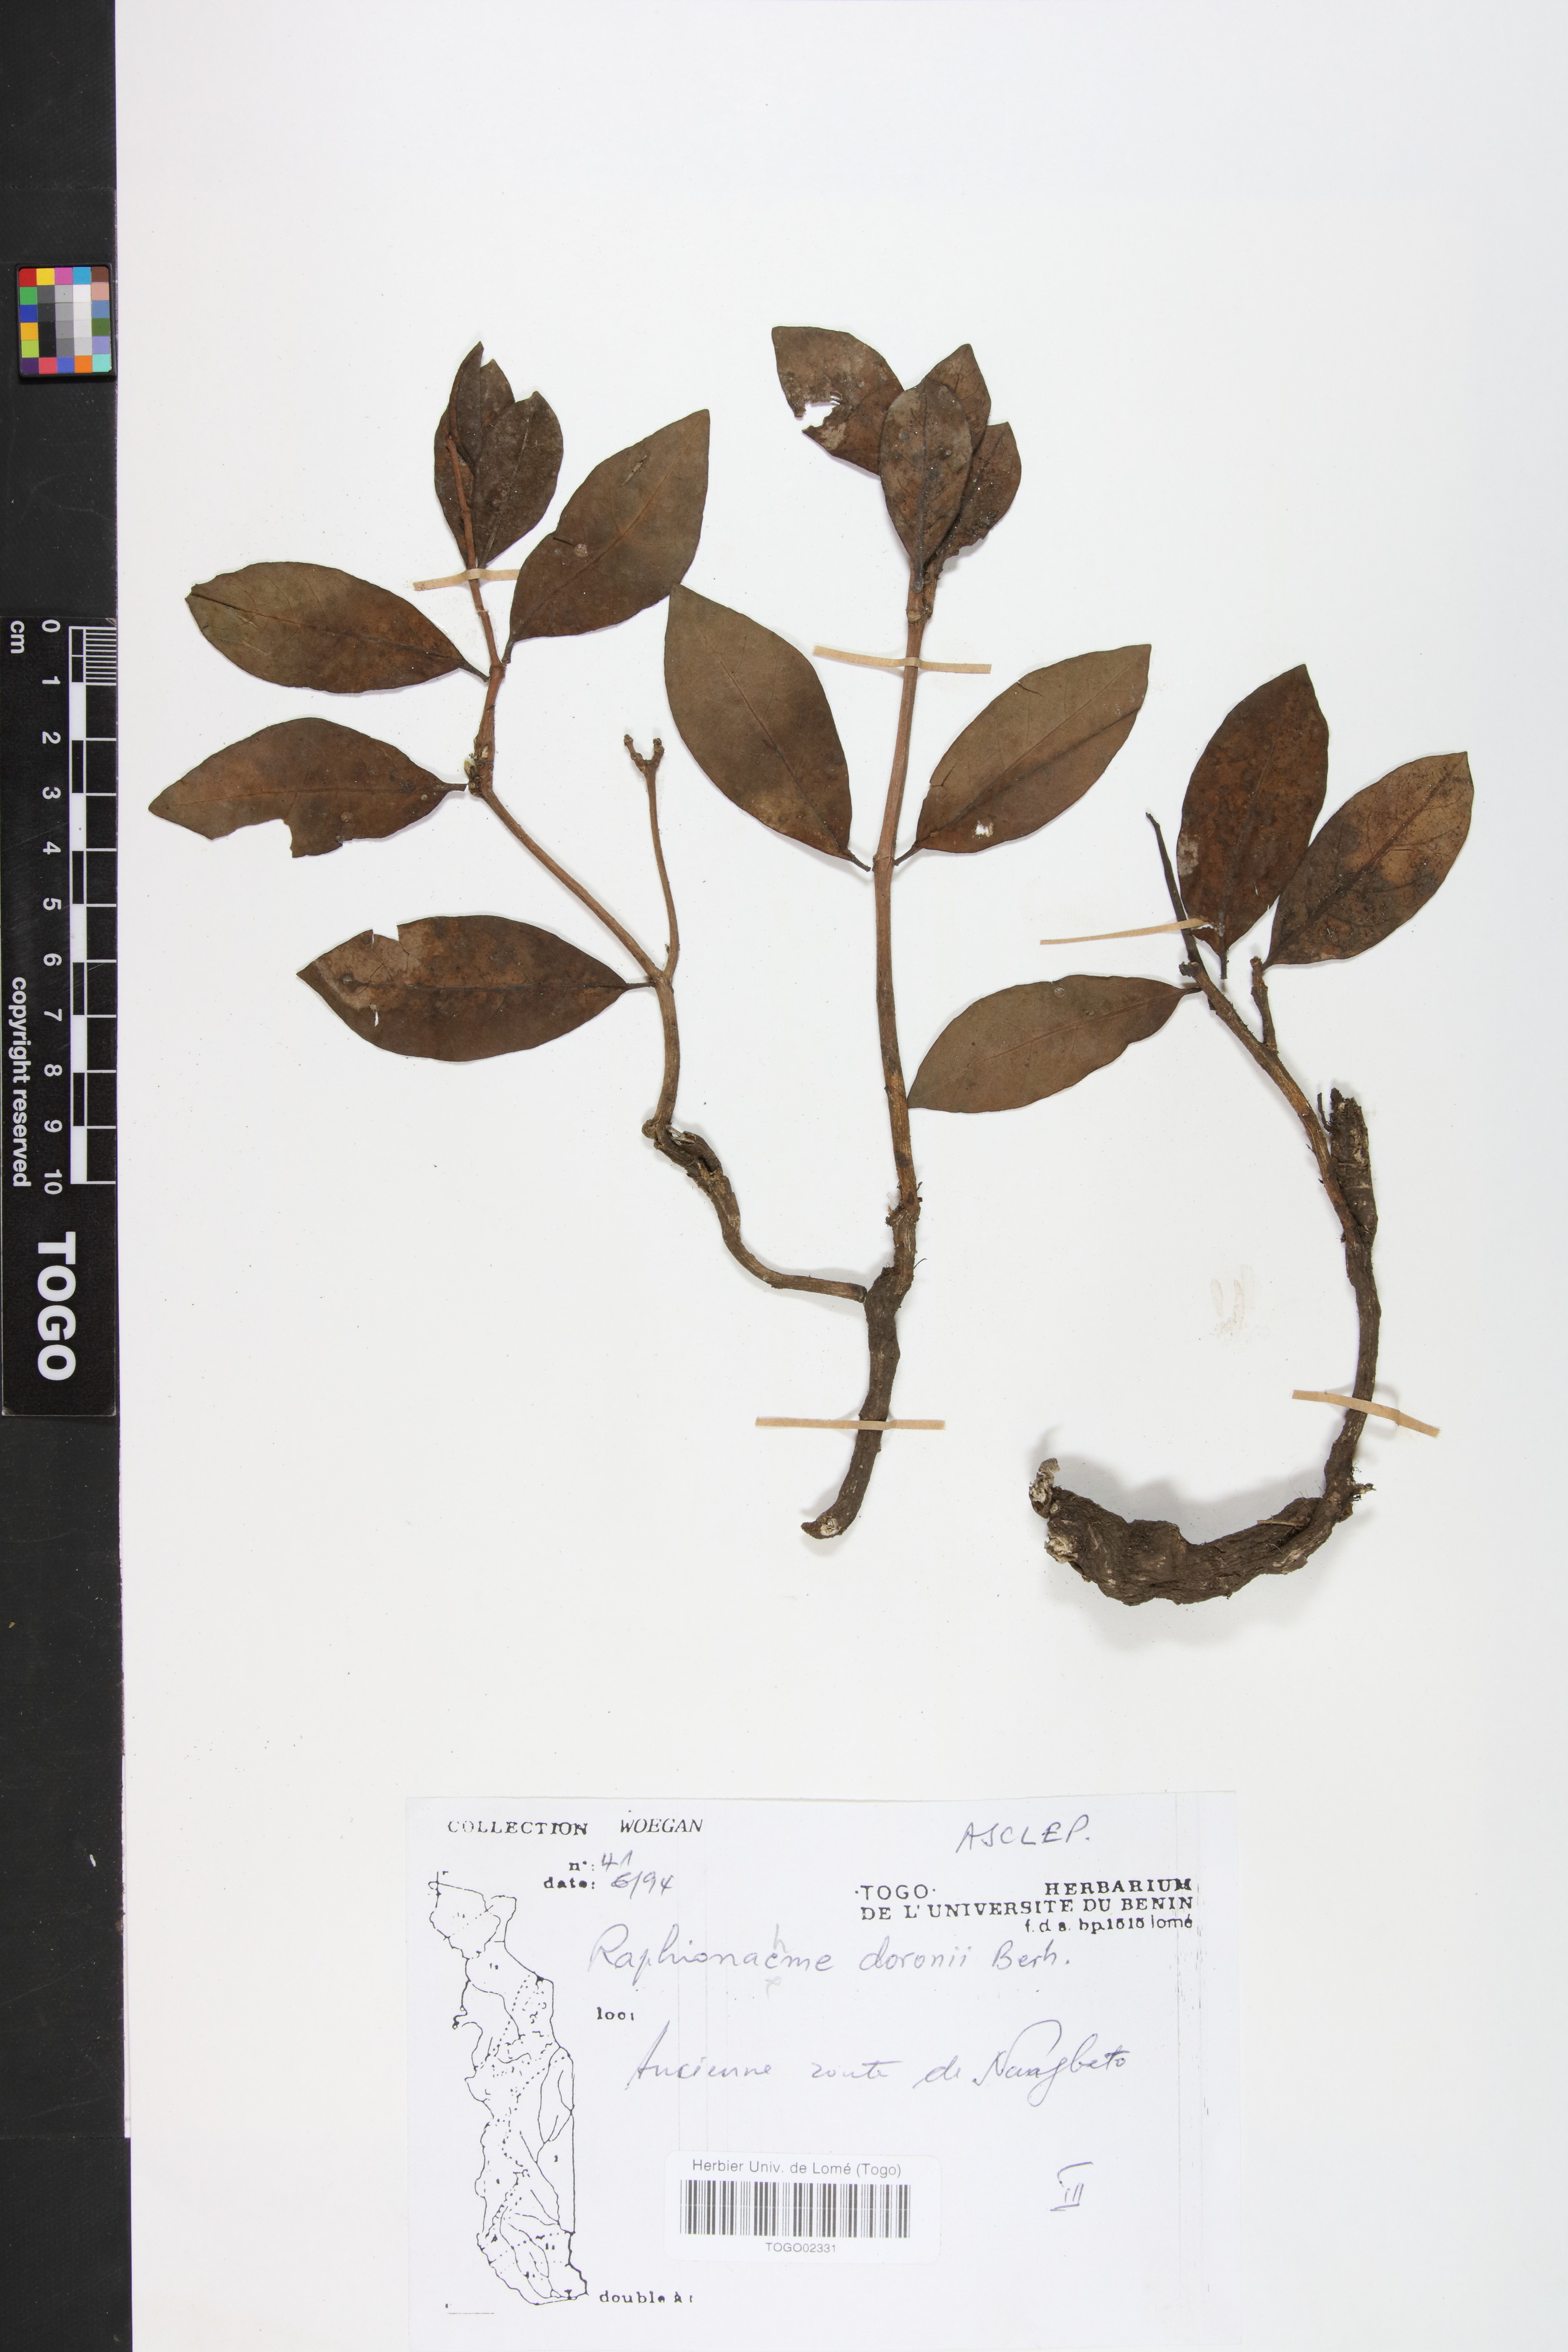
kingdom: Plantae
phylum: Tracheophyta
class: Magnoliopsida
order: Gentianales
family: Apocynaceae
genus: Raphionacme
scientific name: Raphionacme brownii
